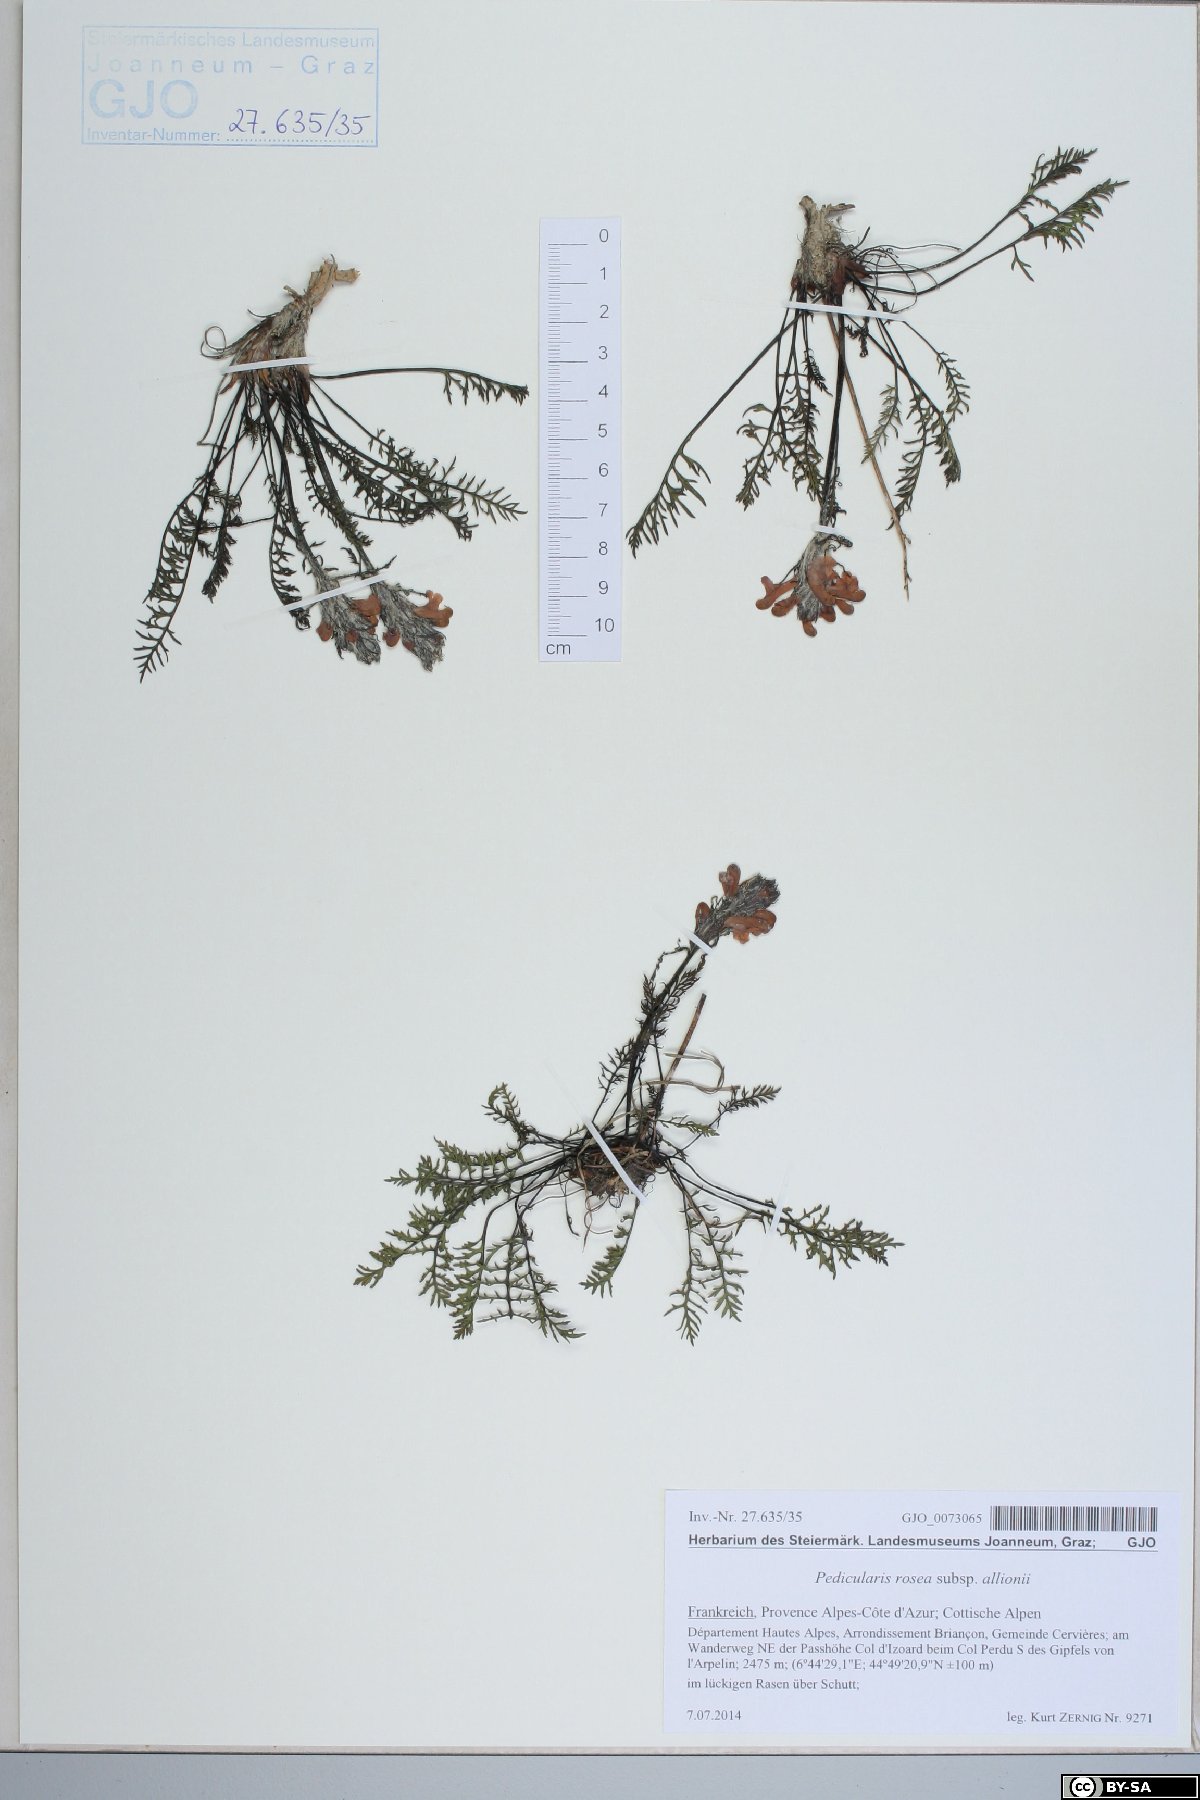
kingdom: Plantae
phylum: Tracheophyta
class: Magnoliopsida
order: Lamiales
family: Orobanchaceae
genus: Pedicularis
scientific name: Pedicularis rosea
